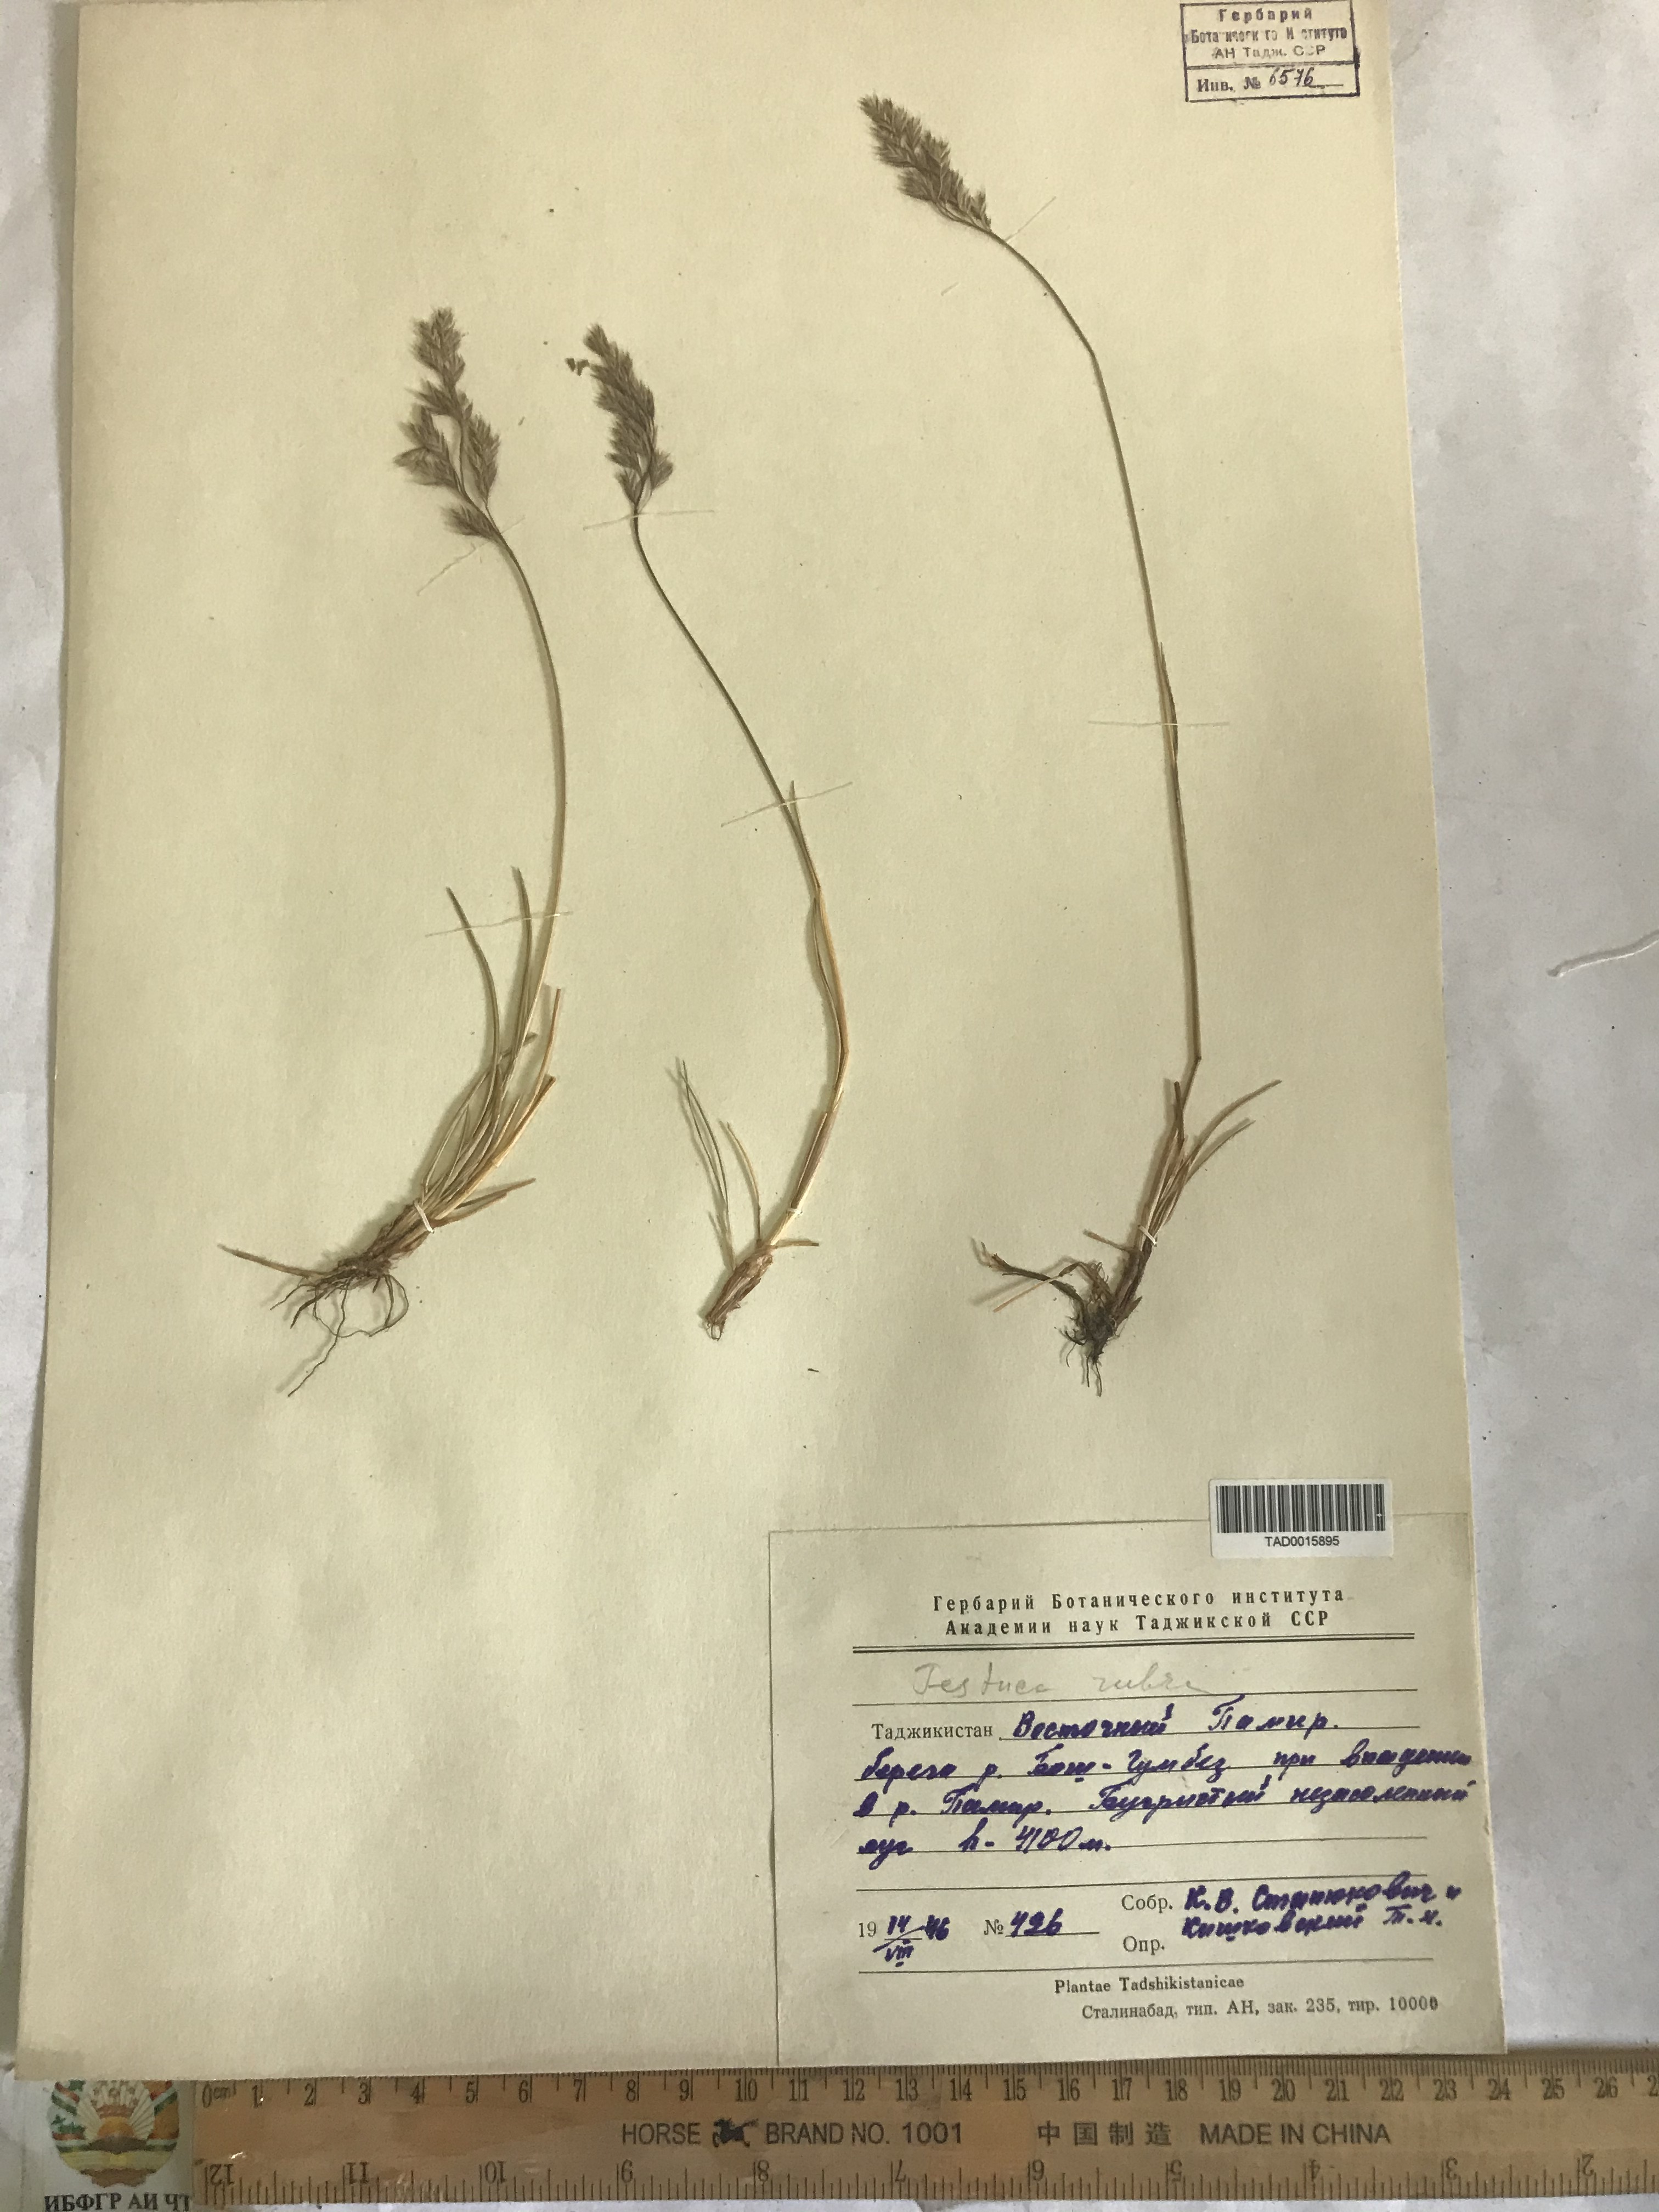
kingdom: Plantae
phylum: Tracheophyta
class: Liliopsida
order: Poales
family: Poaceae
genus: Festuca
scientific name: Festuca rubra
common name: Red fescue
